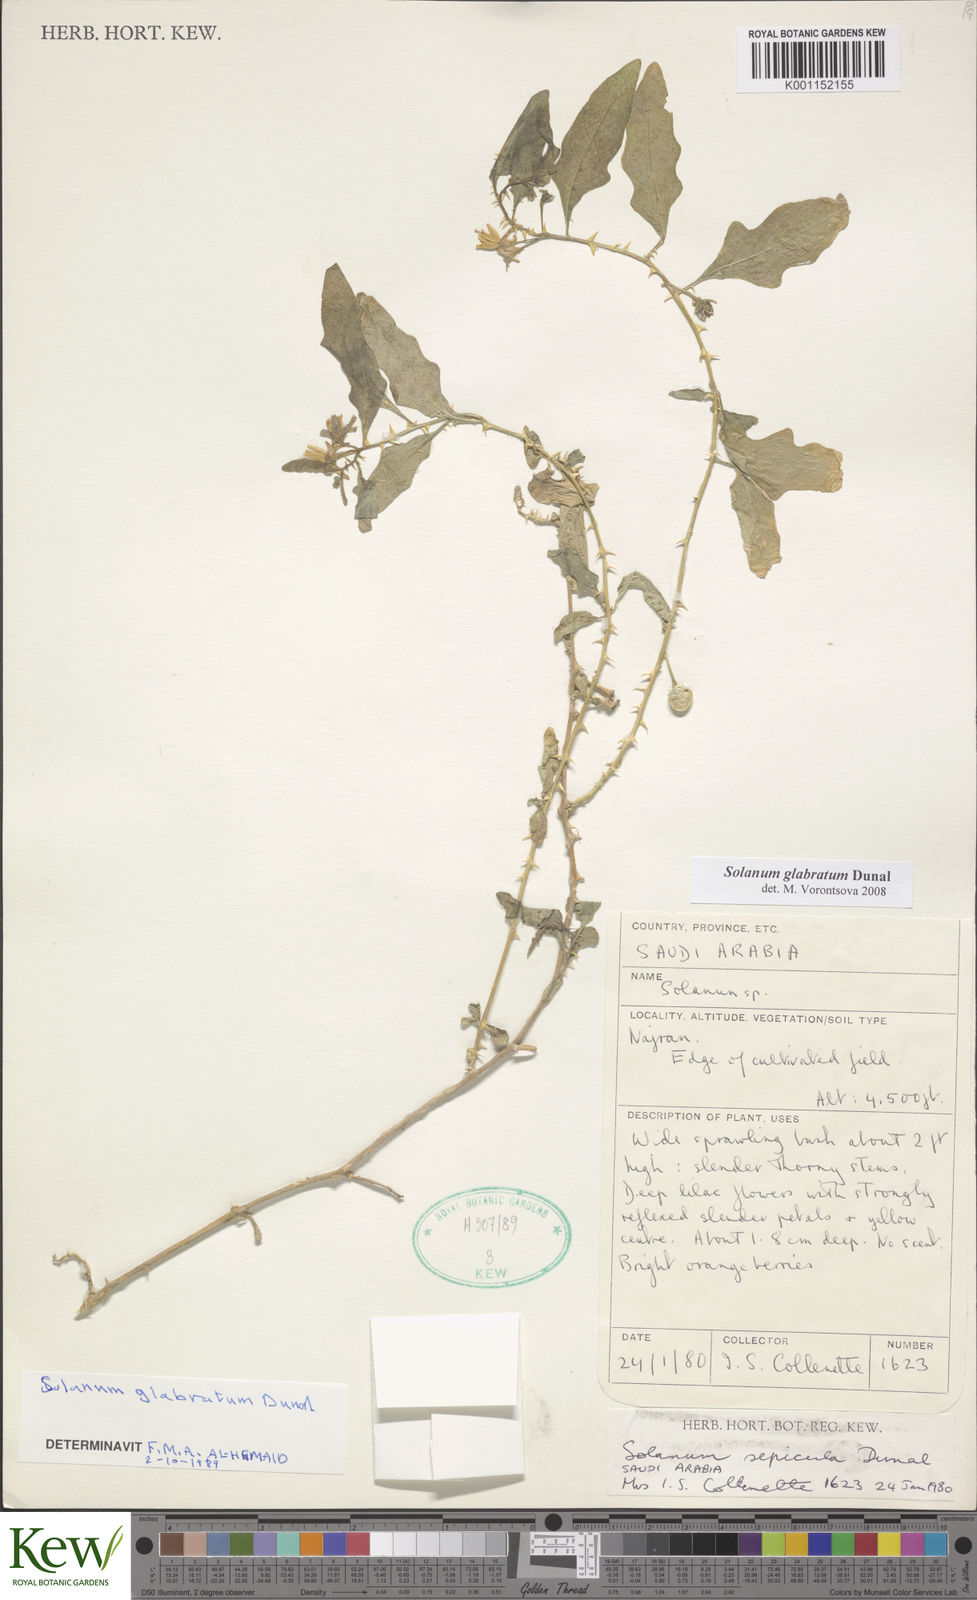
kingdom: Plantae
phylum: Tracheophyta
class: Magnoliopsida
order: Solanales
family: Solanaceae
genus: Solanum
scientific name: Solanum glabratum
